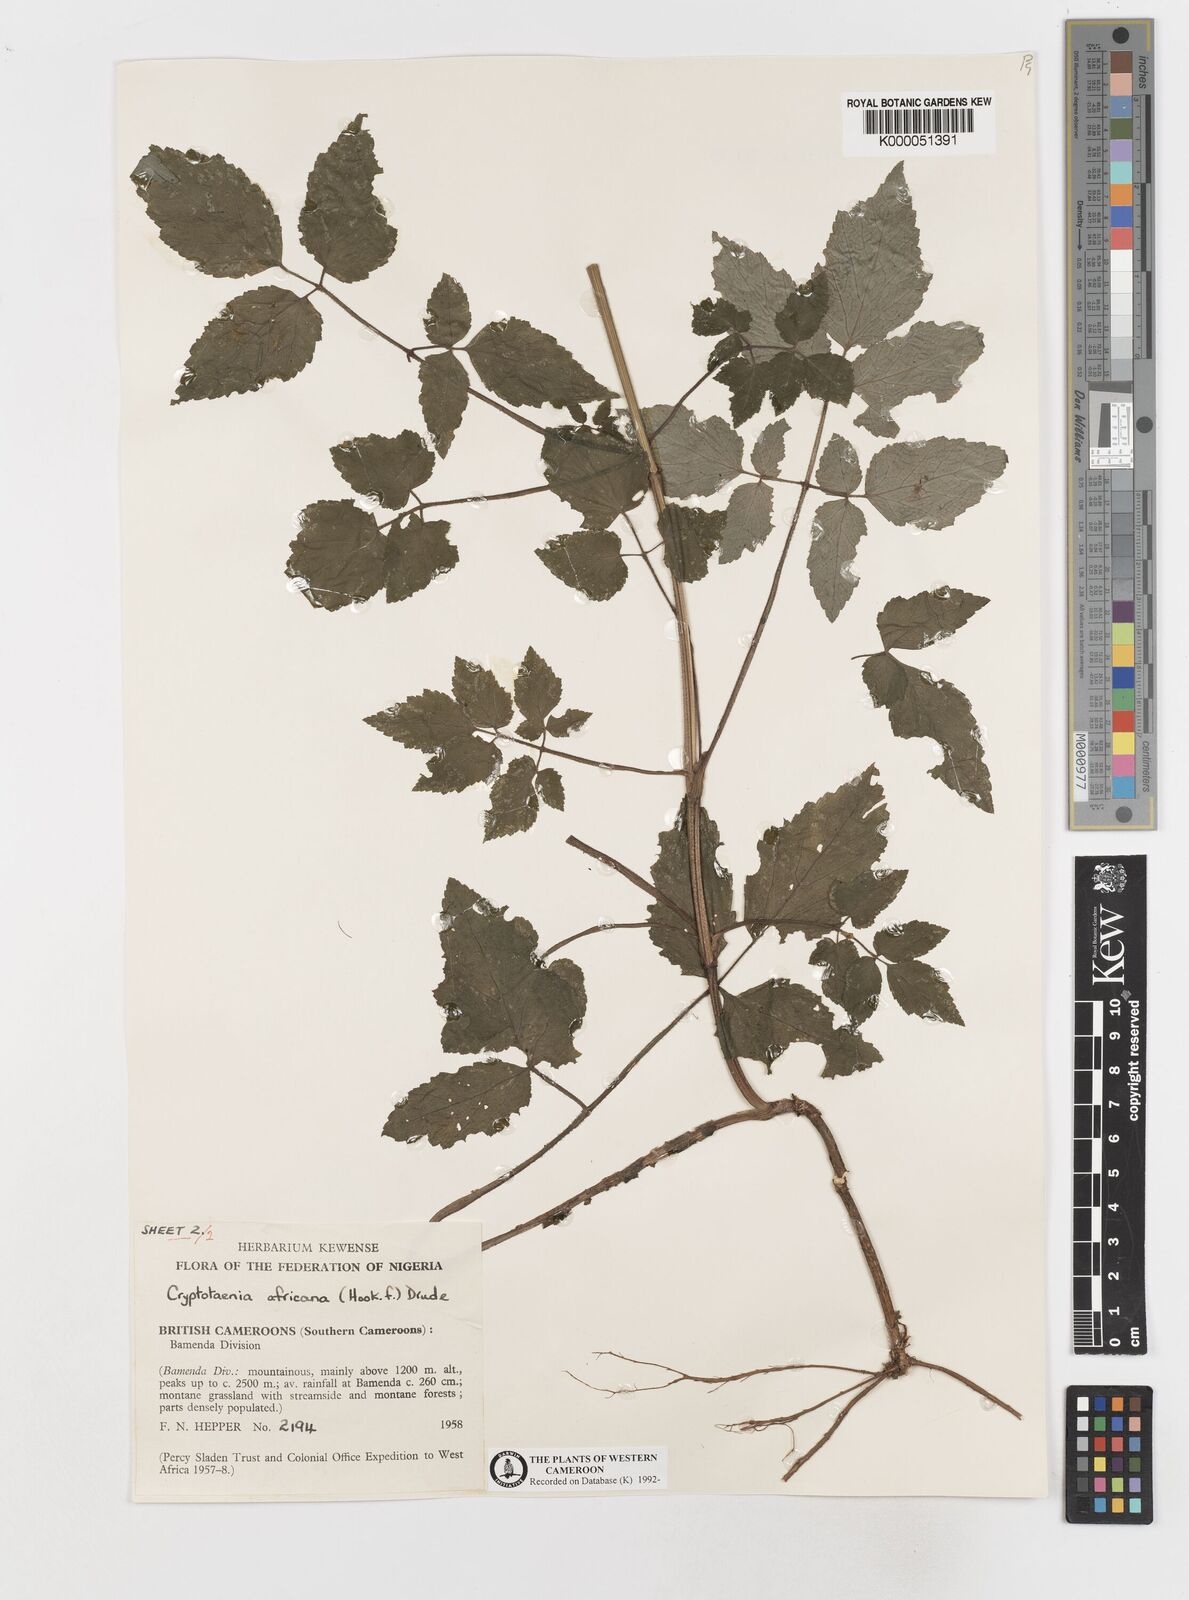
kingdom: Plantae
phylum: Tracheophyta
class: Magnoliopsida
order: Apiales
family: Apiaceae
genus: Cryptotaenia
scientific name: Cryptotaenia africana
